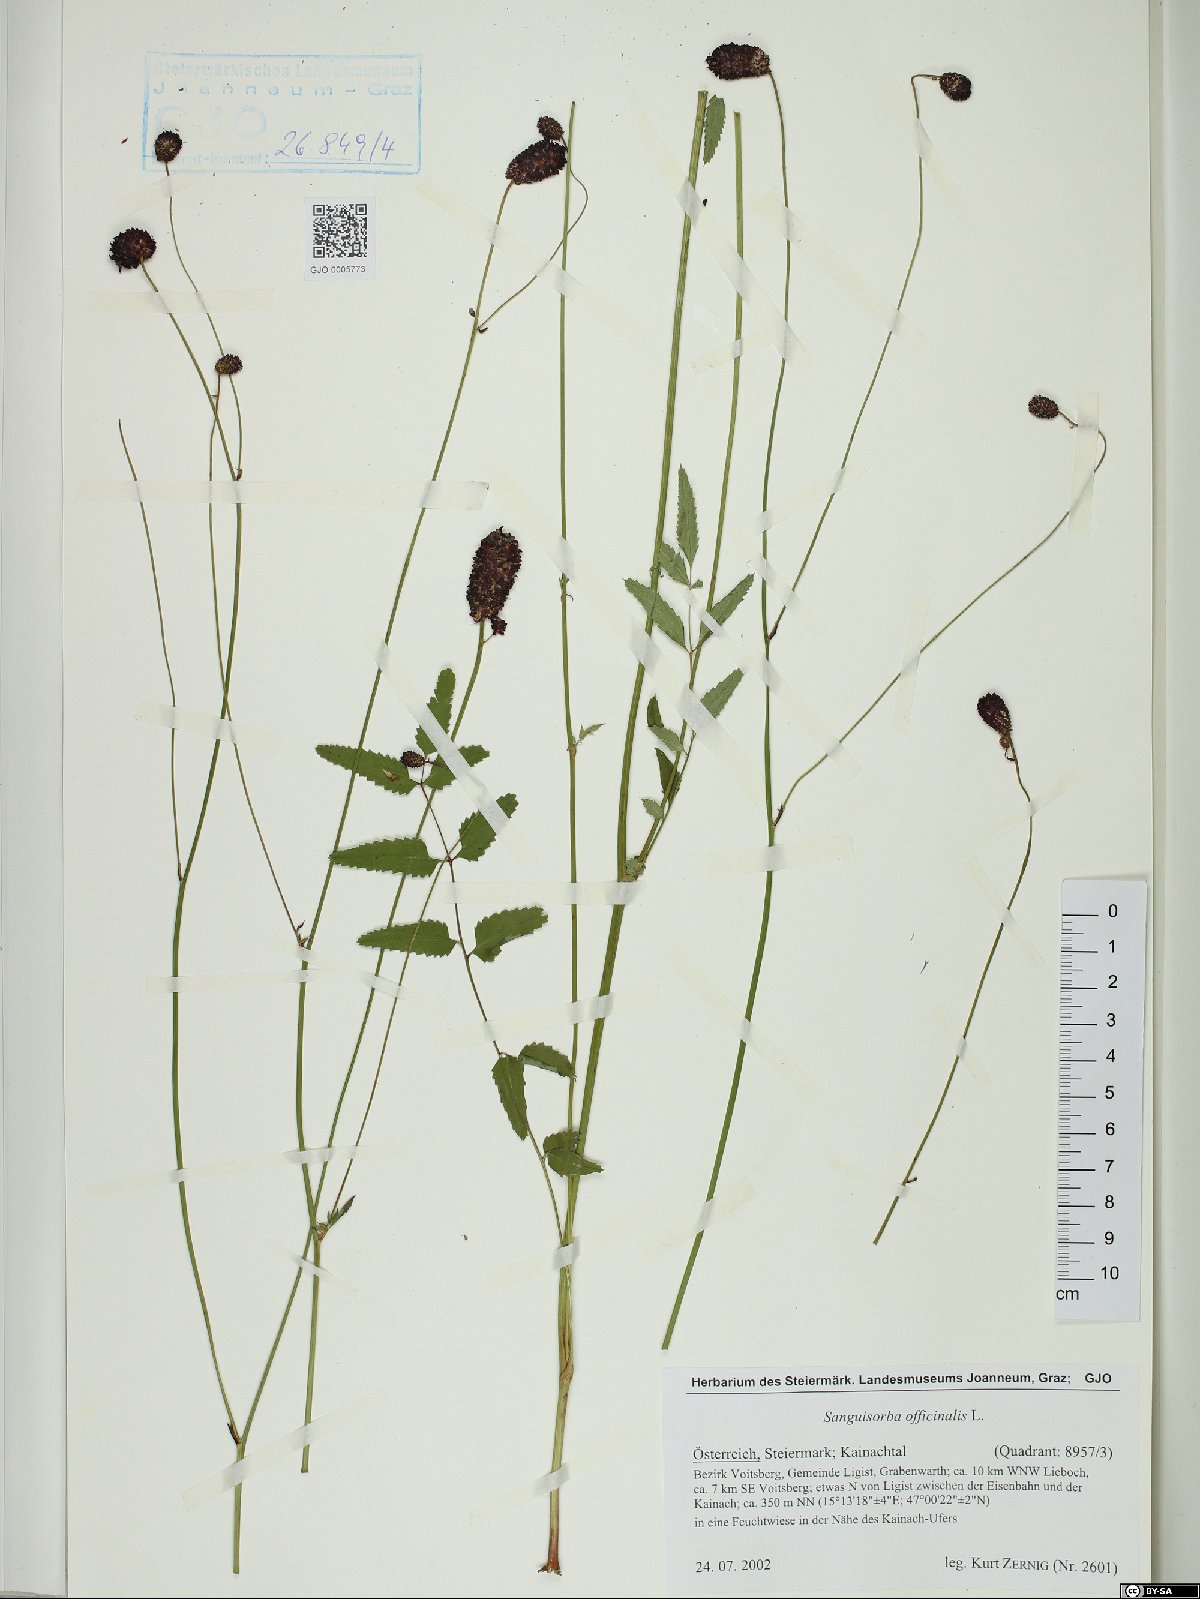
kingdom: Plantae
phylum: Tracheophyta
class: Magnoliopsida
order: Rosales
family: Rosaceae
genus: Sanguisorba
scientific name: Sanguisorba officinalis
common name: Great burnet
